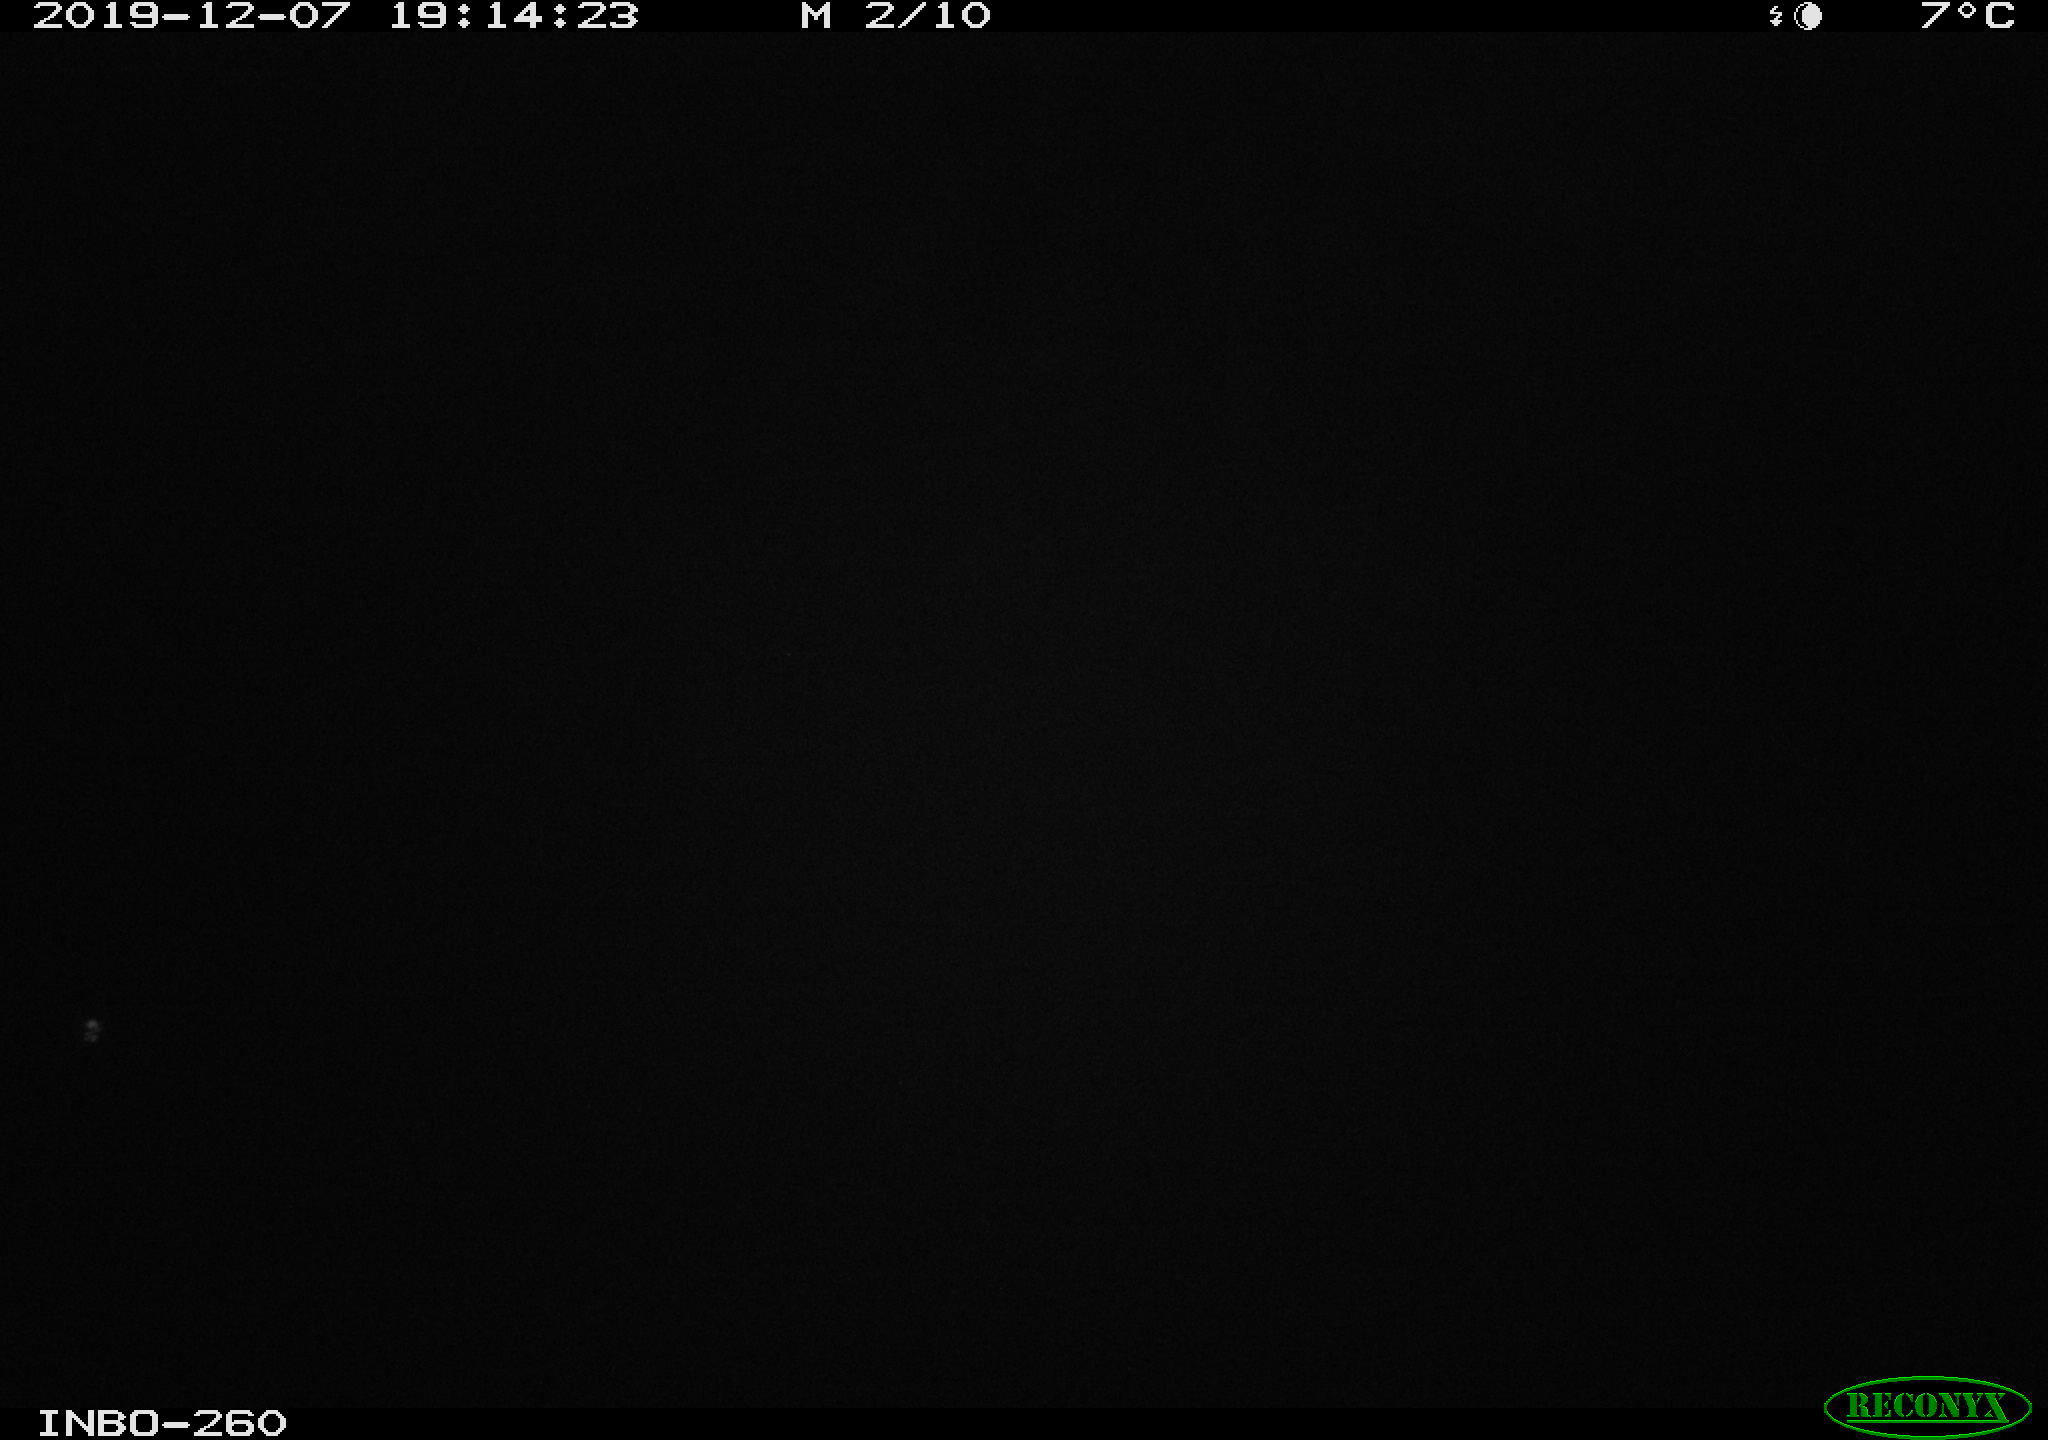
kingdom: Animalia
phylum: Chordata
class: Aves
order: Anseriformes
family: Anatidae
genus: Anas
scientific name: Anas platyrhynchos
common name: Mallard
